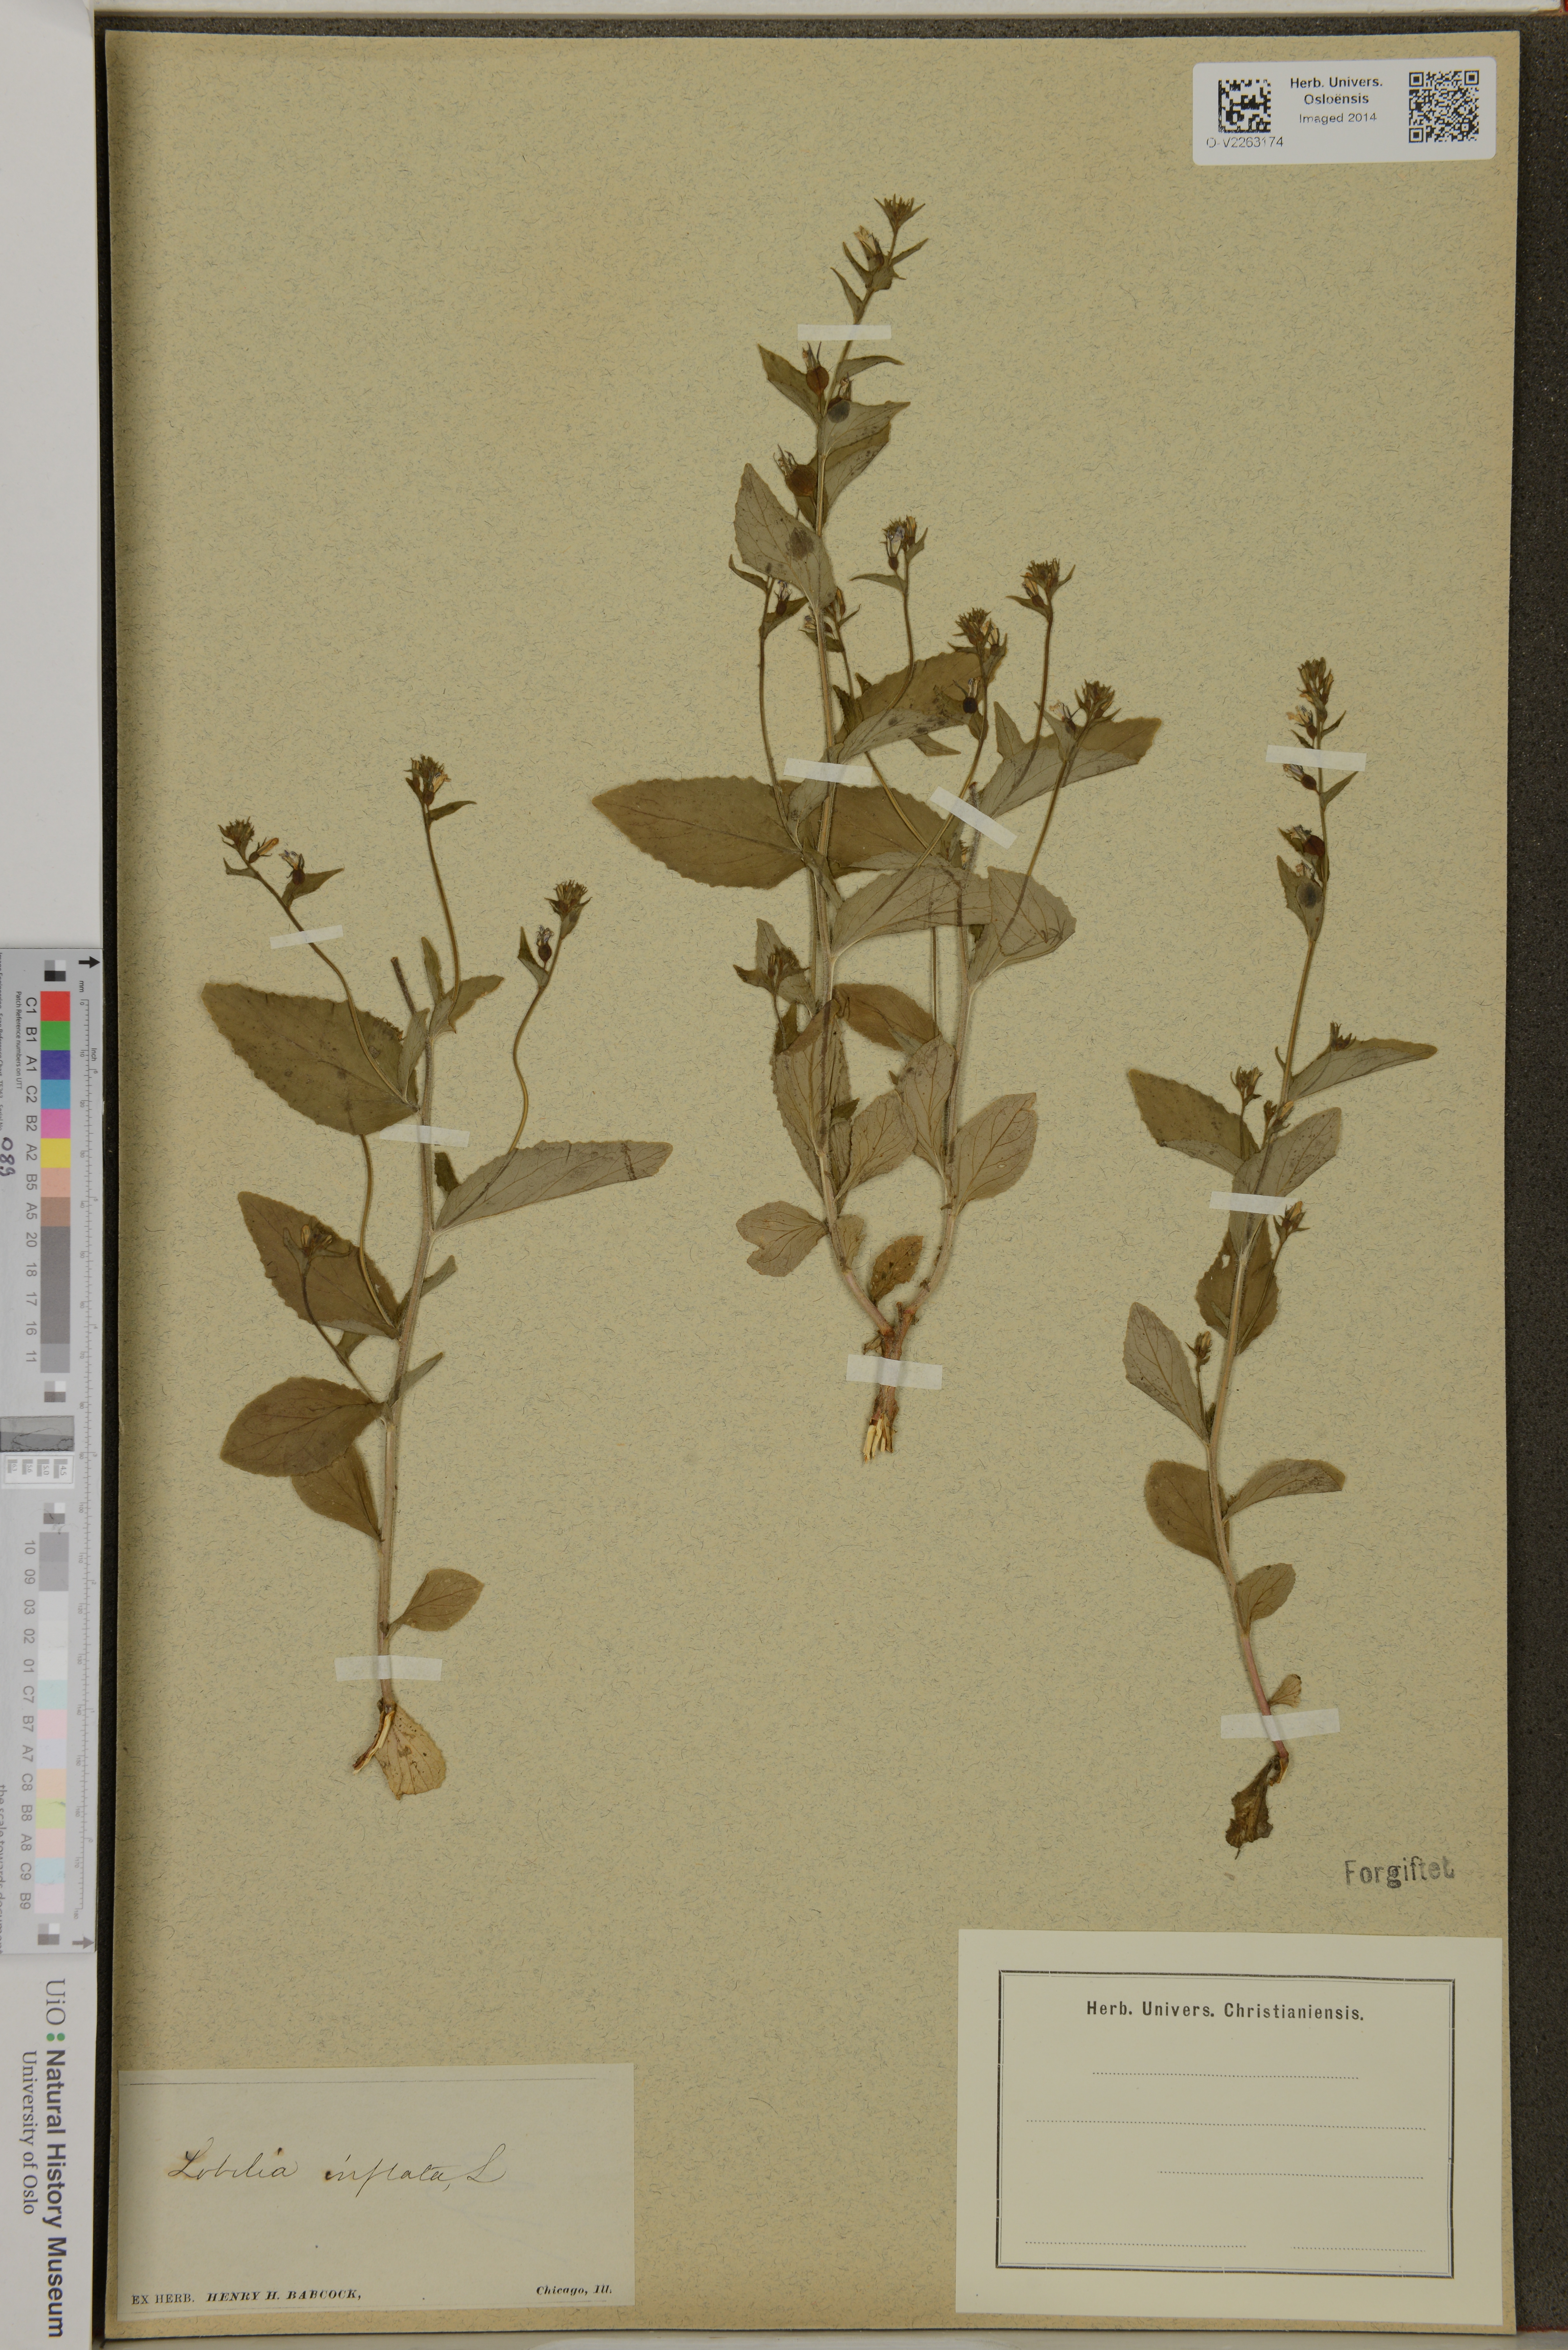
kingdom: Plantae
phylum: Tracheophyta
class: Magnoliopsida
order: Asterales
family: Campanulaceae
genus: Lobelia
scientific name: Lobelia inflata
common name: Indian tobacco
